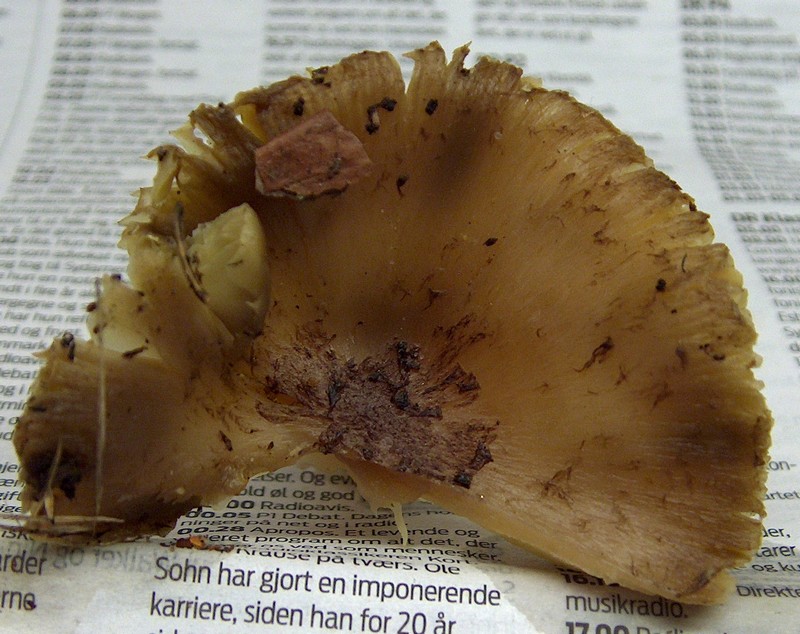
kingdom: Fungi
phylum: Basidiomycota
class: Agaricomycetes
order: Agaricales
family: Tricholomataceae
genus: Tricholoma
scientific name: Tricholoma scalpturatum
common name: gulplettet ridderhat
